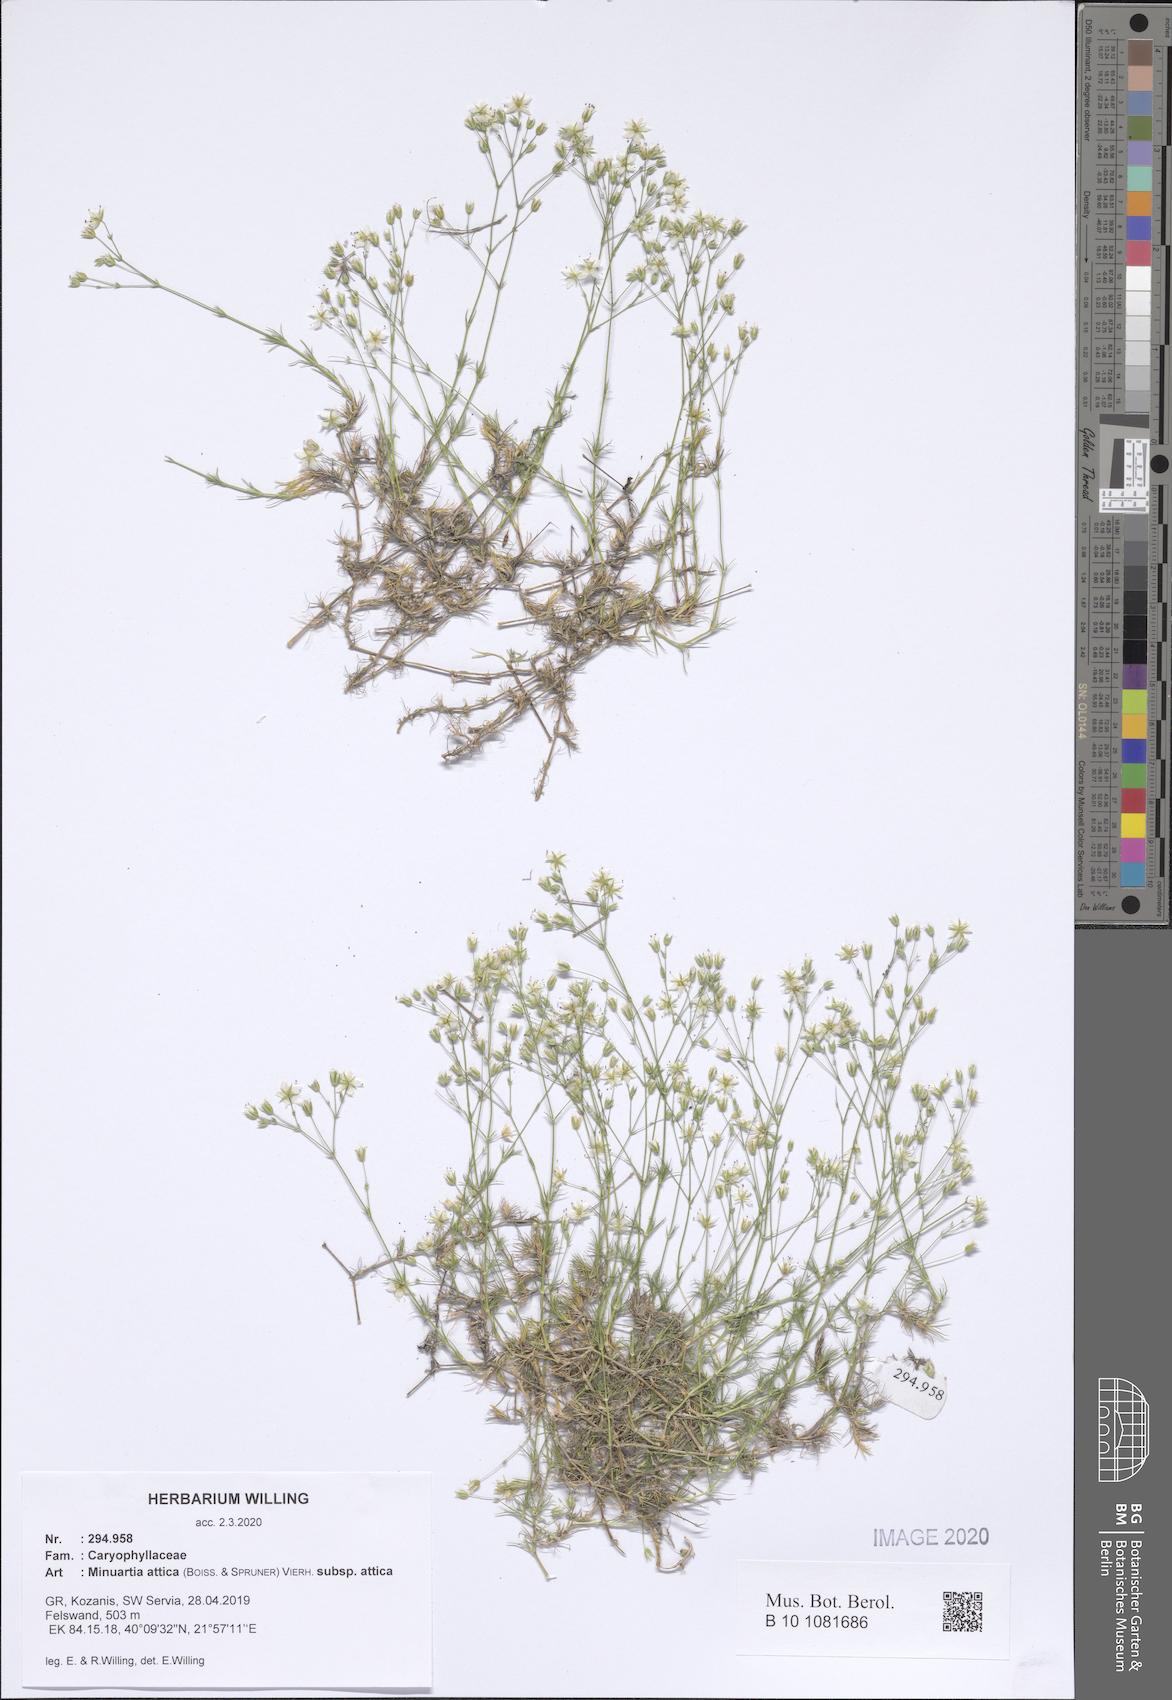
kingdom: Plantae
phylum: Tracheophyta
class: Magnoliopsida
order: Caryophyllales
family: Caryophyllaceae
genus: Sabulina
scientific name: Sabulina attica
